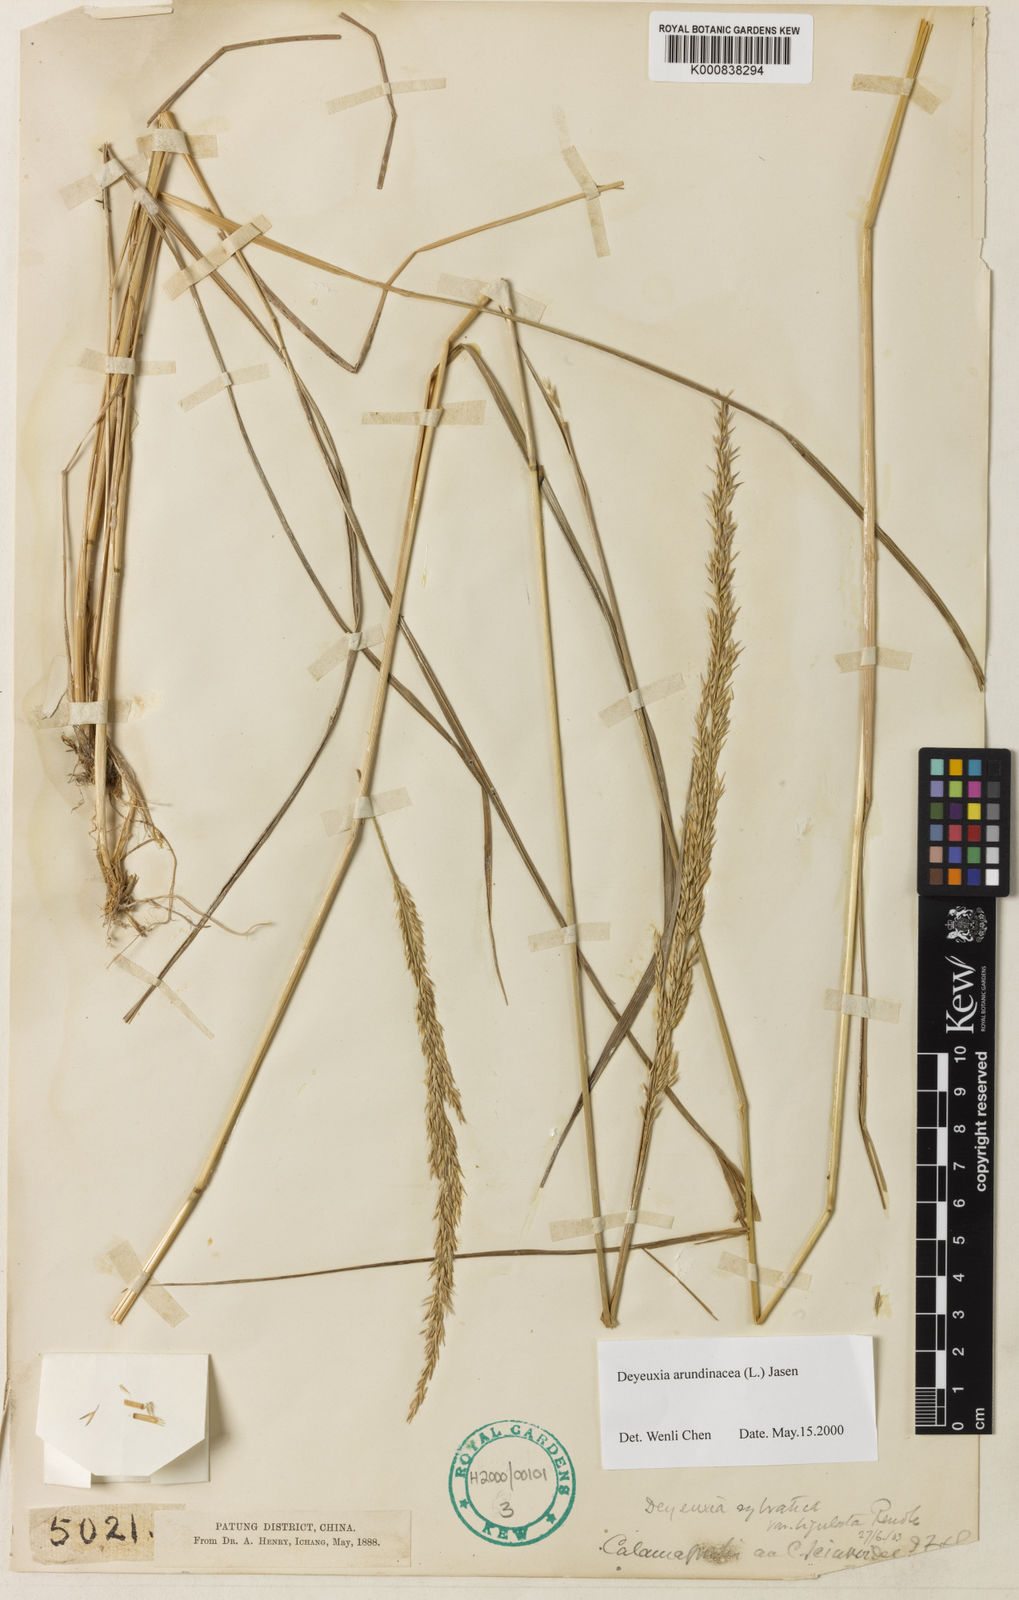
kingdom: Plantae
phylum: Tracheophyta
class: Liliopsida
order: Poales
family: Poaceae
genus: Calamagrostis
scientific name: Calamagrostis arundinacea
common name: Metskastik
